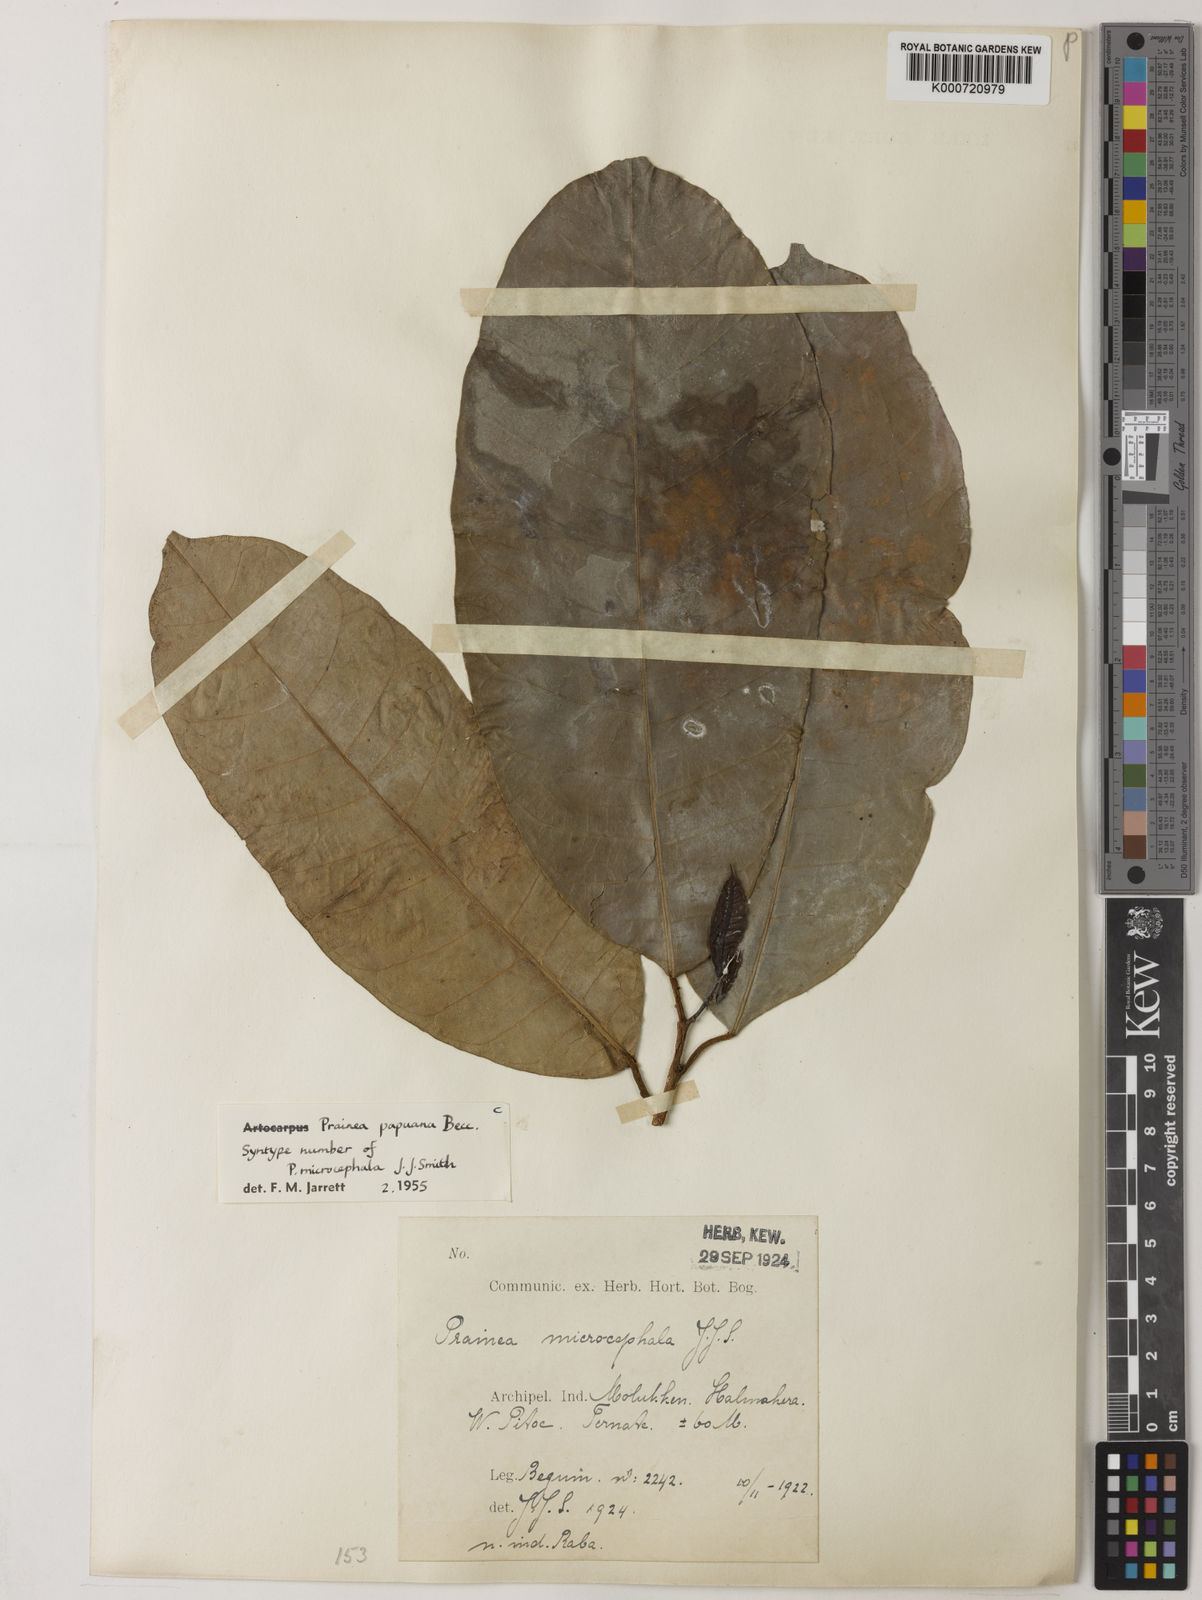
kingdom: Plantae
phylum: Tracheophyta
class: Magnoliopsida
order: Rosales
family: Moraceae
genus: Prainea
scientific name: Prainea limpato
